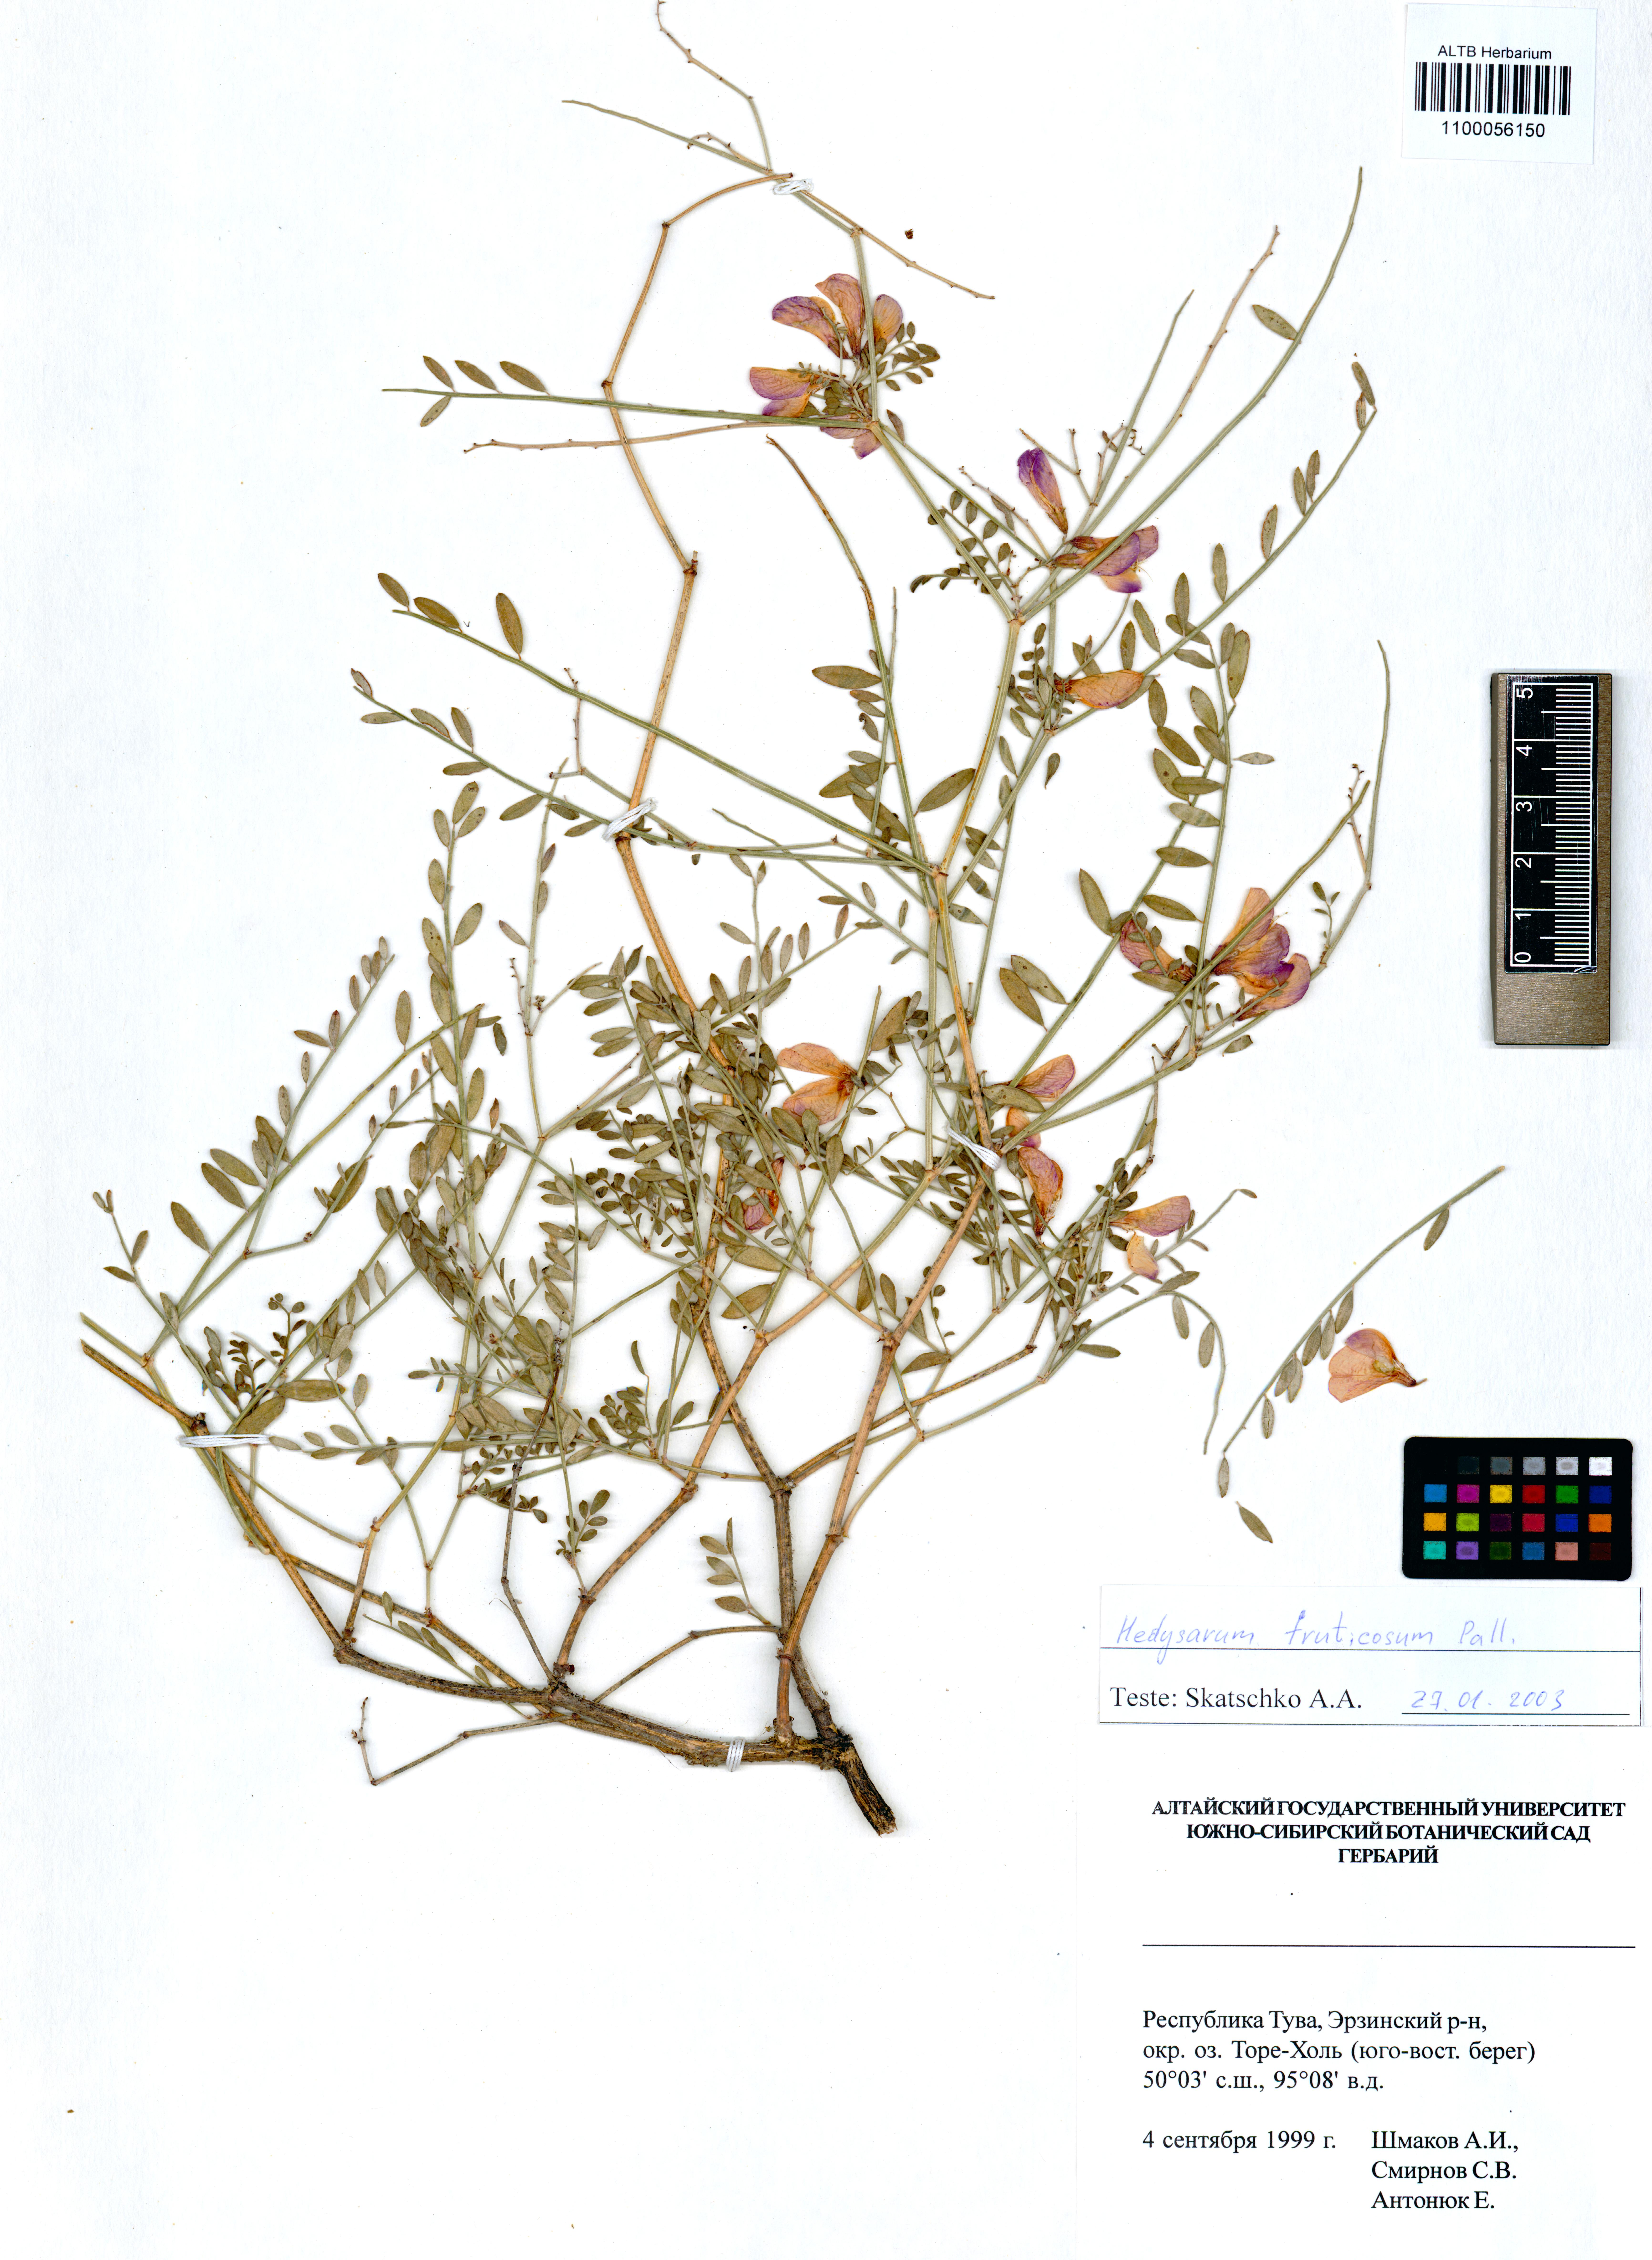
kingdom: Plantae
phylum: Tracheophyta
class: Magnoliopsida
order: Fabales
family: Fabaceae
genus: Corethrodendron
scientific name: Corethrodendron fruticosum
